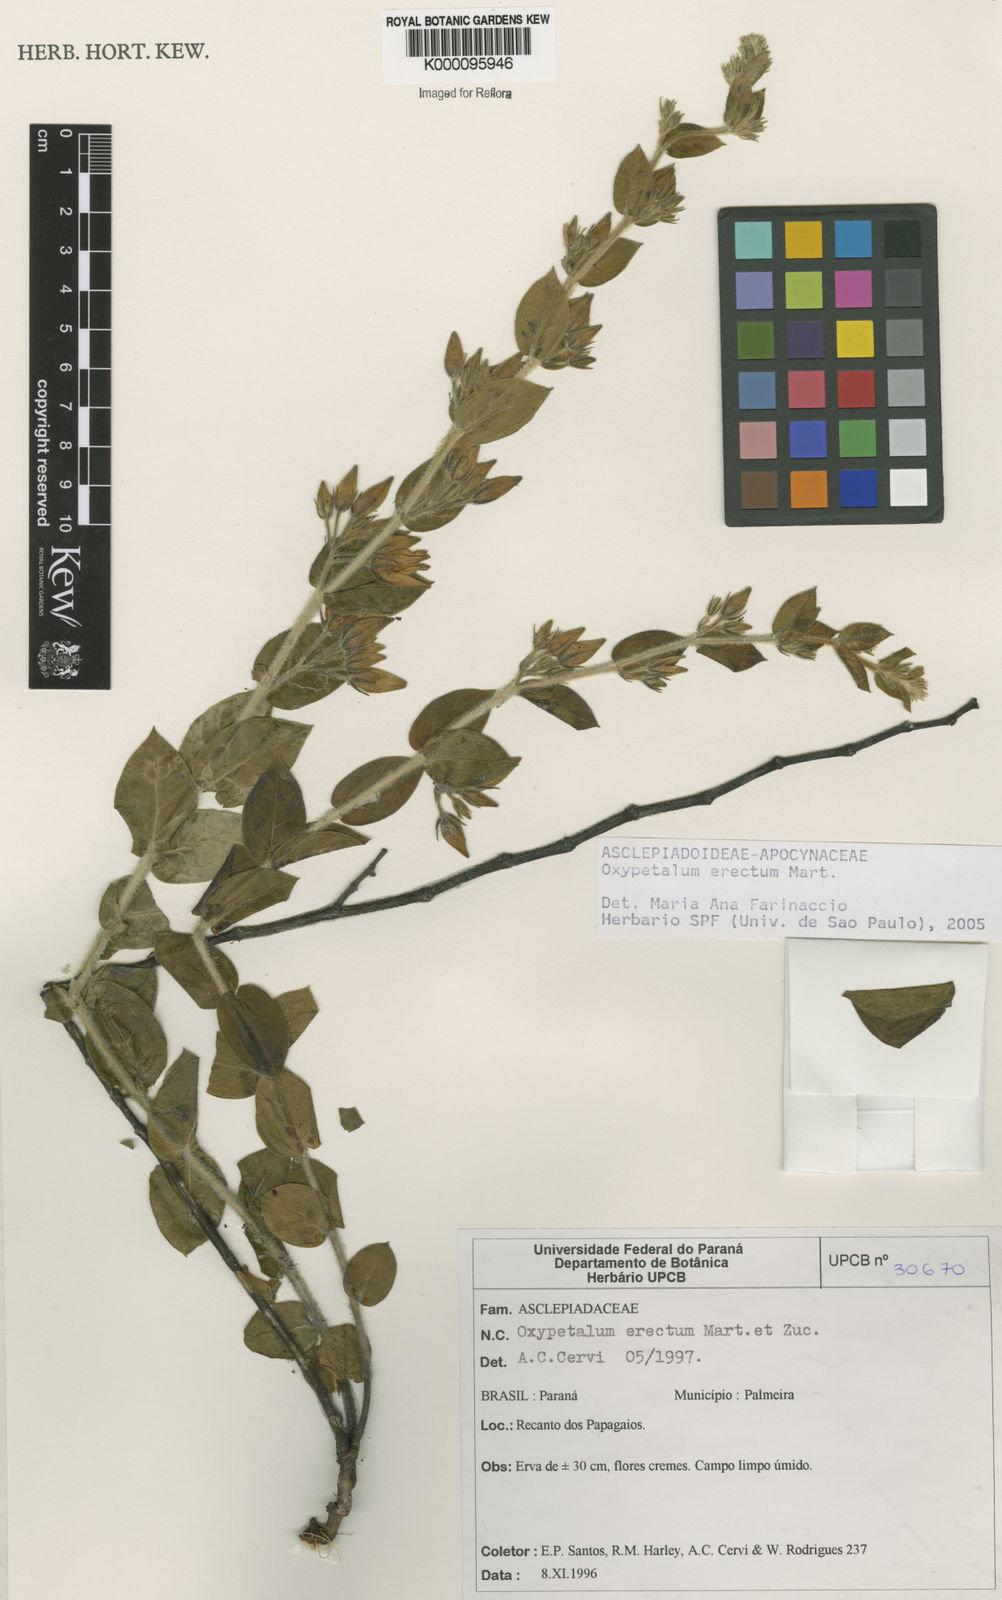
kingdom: Plantae
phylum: Tracheophyta
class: Magnoliopsida
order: Gentianales
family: Apocynaceae
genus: Oxypetalum
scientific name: Oxypetalum erectum
